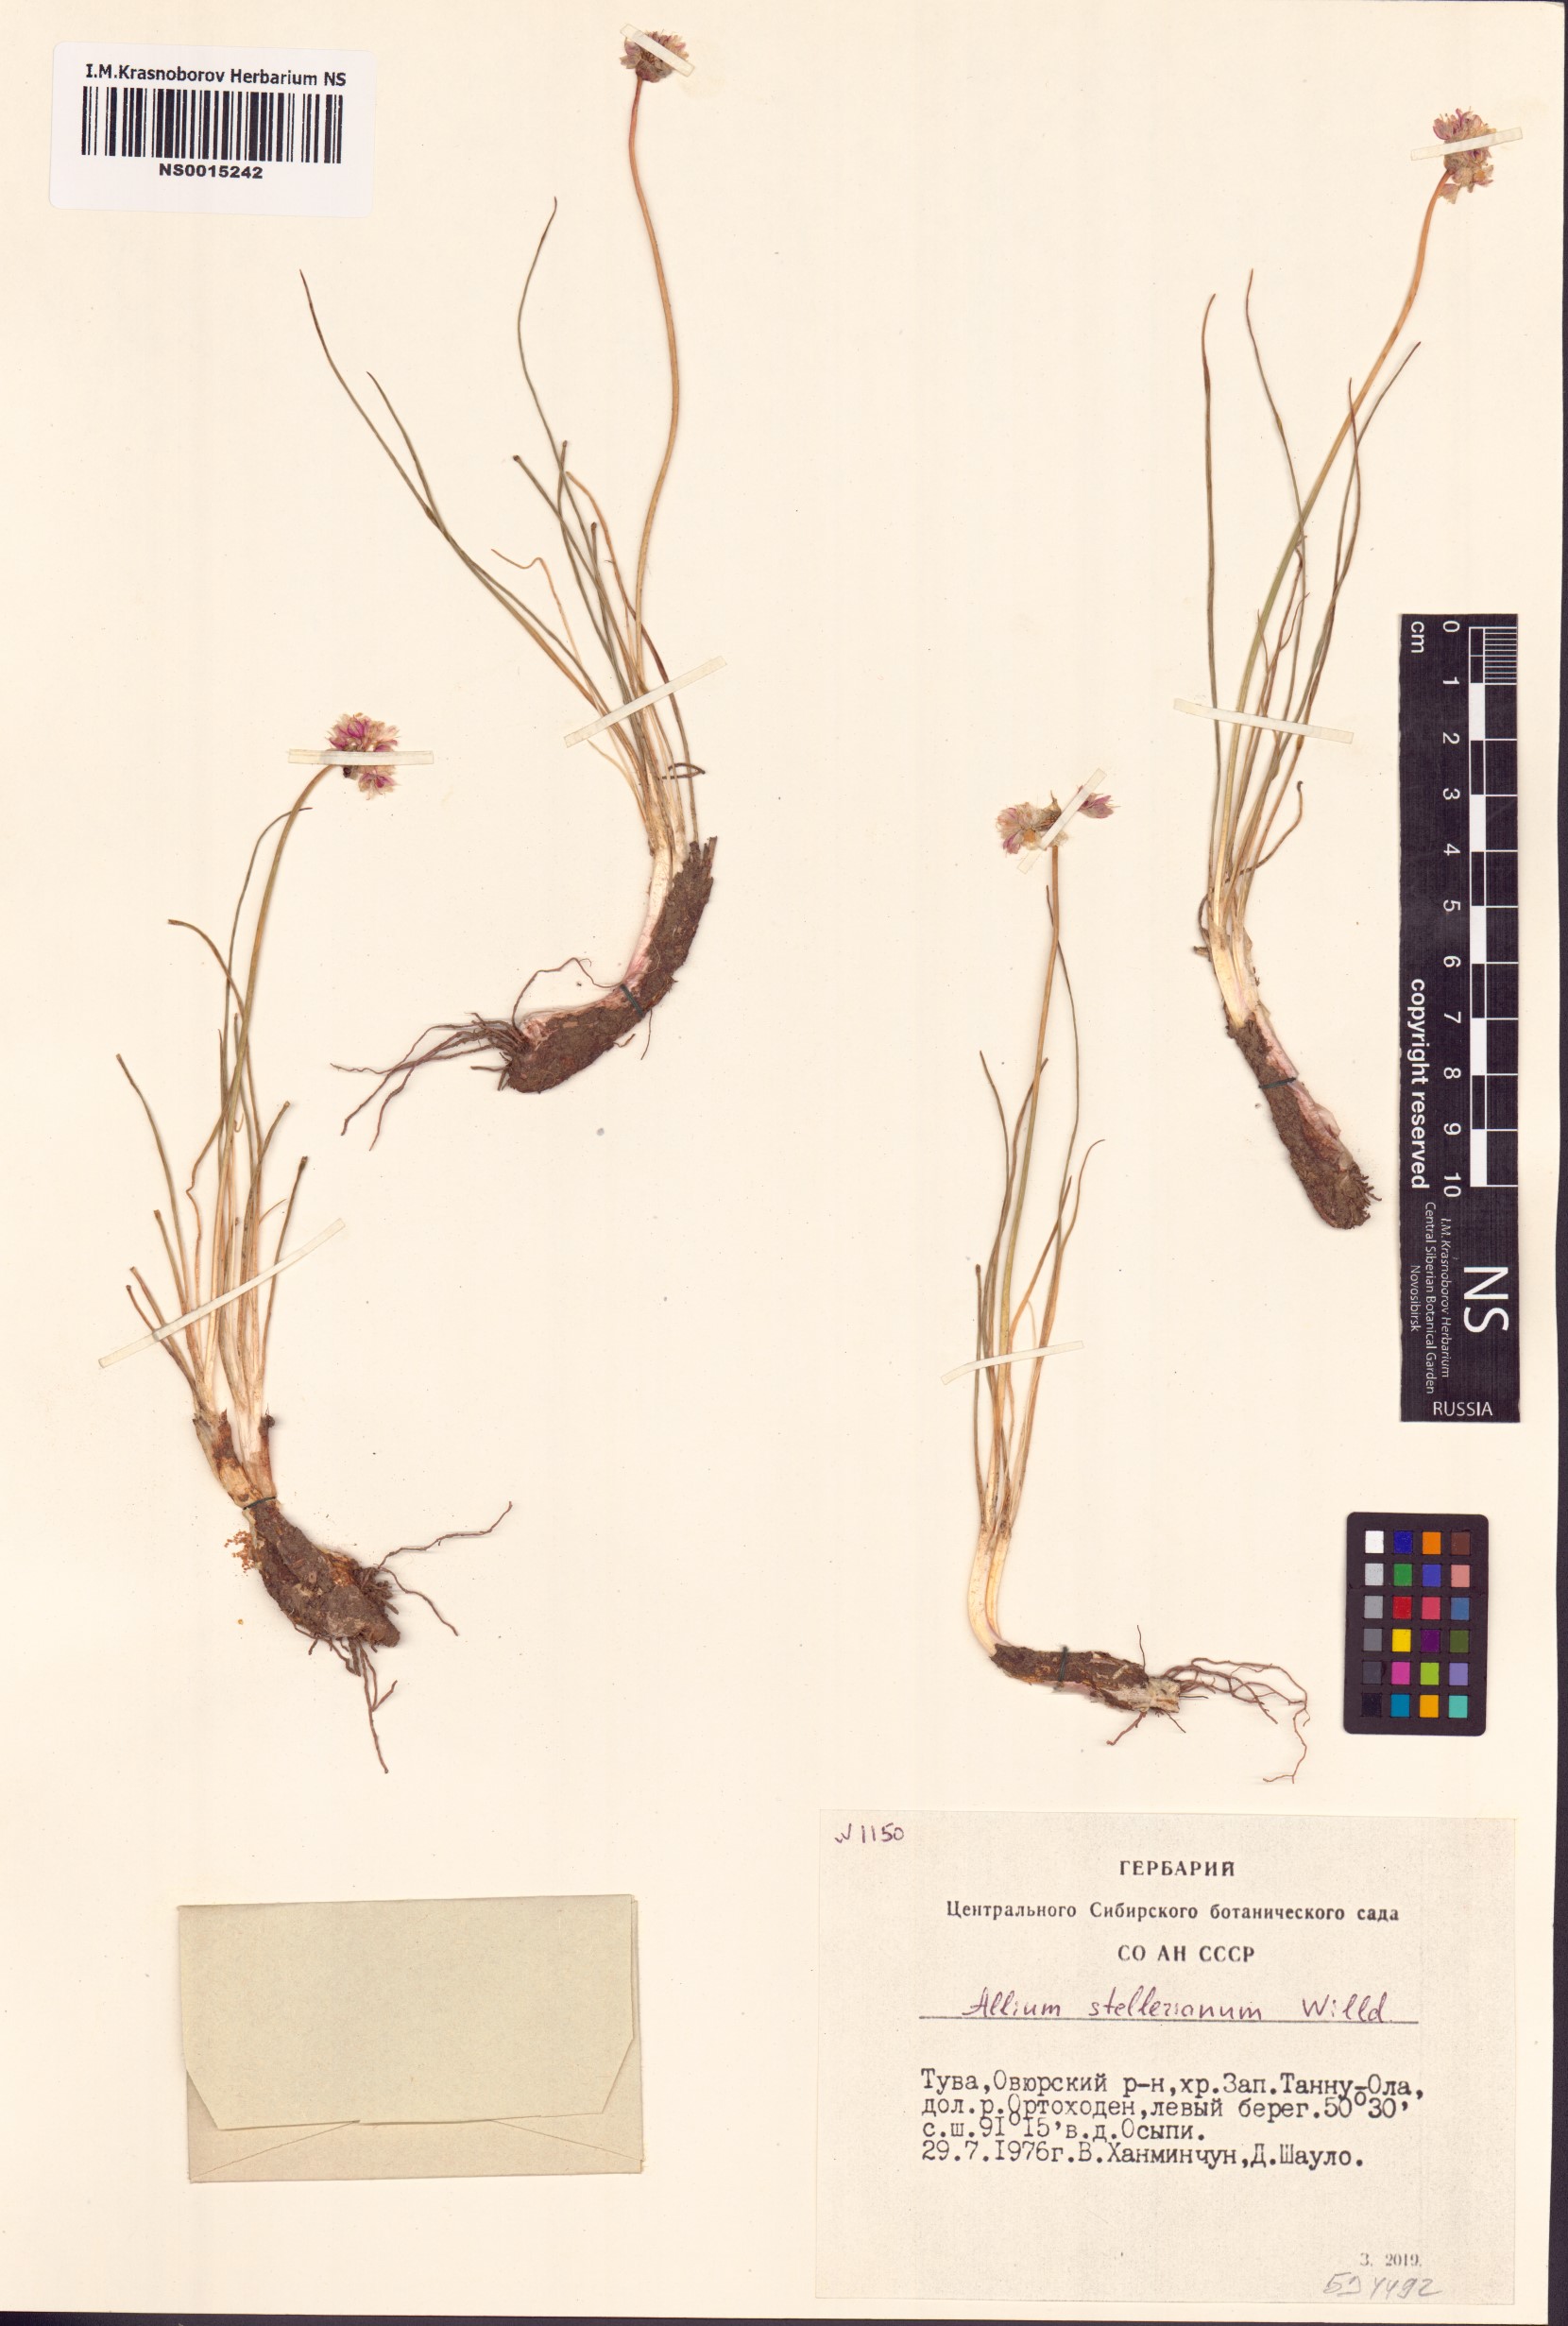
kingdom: Plantae
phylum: Tracheophyta
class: Liliopsida
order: Asparagales
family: Amaryllidaceae
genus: Allium
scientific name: Allium stellerianum
